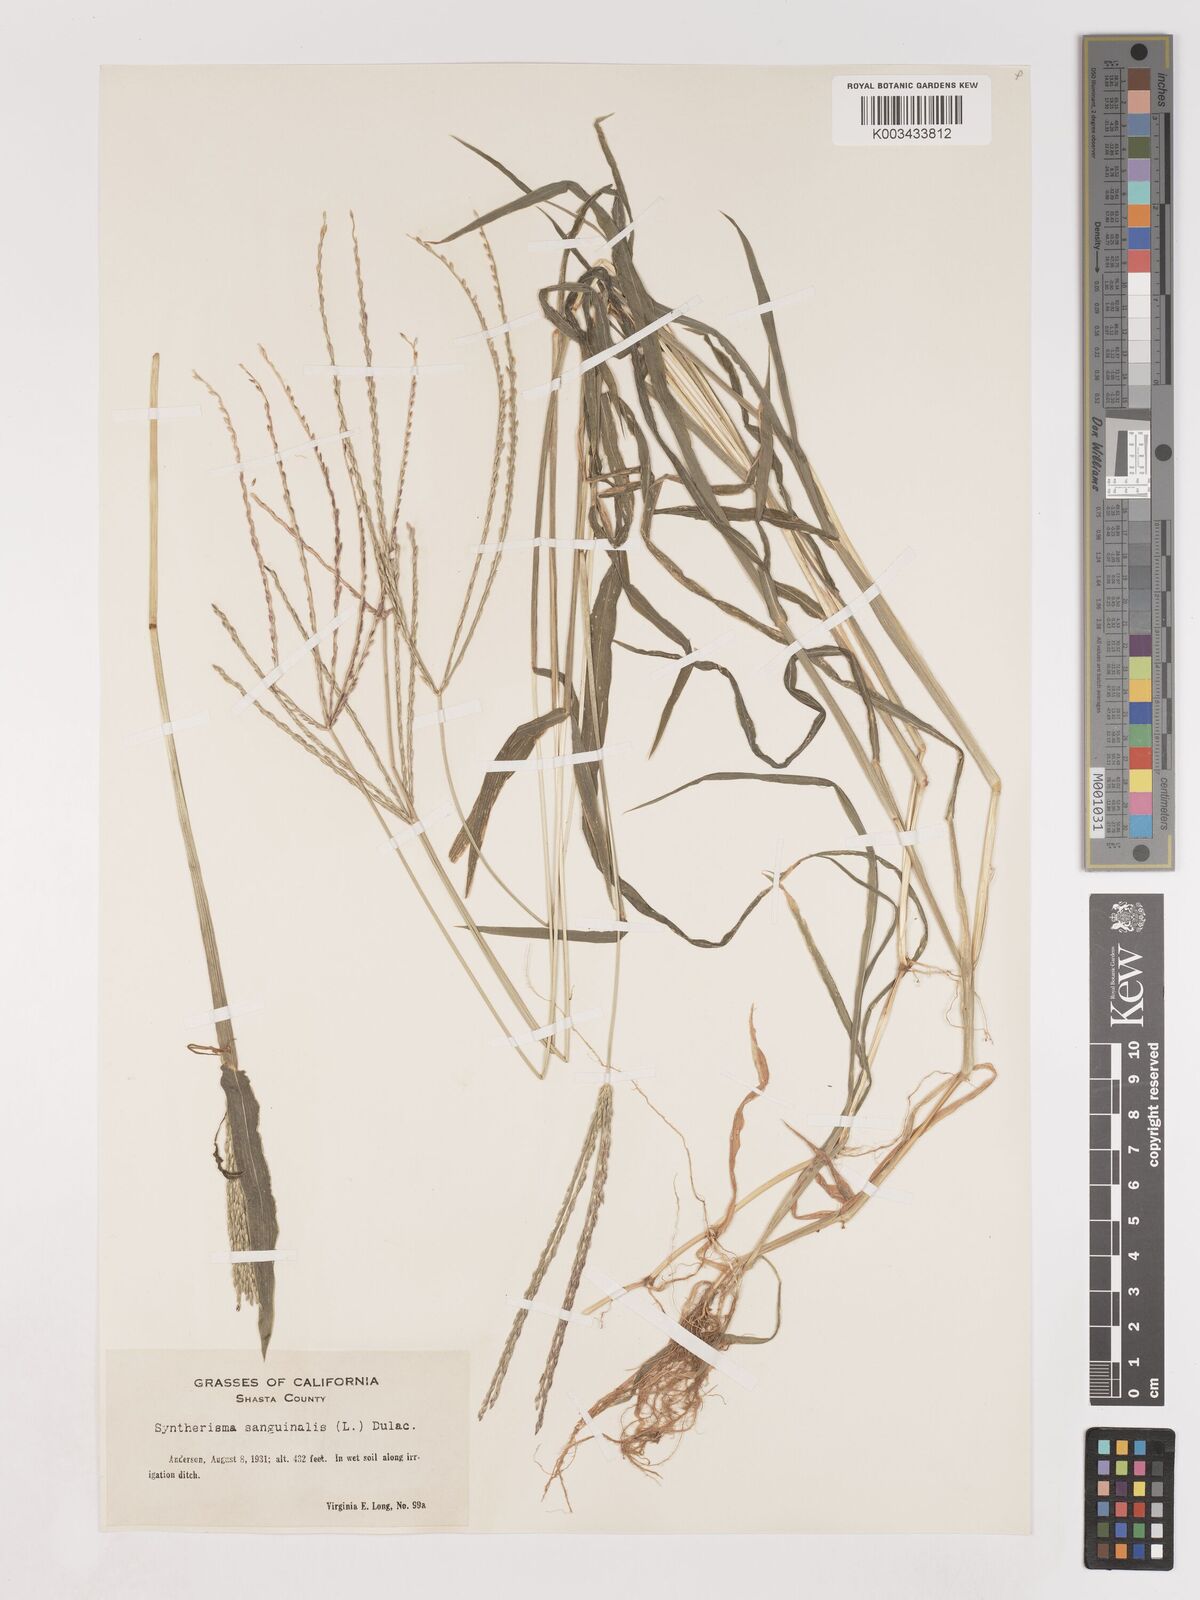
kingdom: Plantae
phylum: Tracheophyta
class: Liliopsida
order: Poales
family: Poaceae
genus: Digitaria
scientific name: Digitaria sanguinalis
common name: Hairy crabgrass
